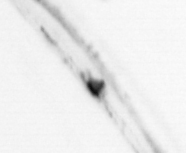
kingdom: Animalia
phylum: Chaetognatha
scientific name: Chaetognatha
